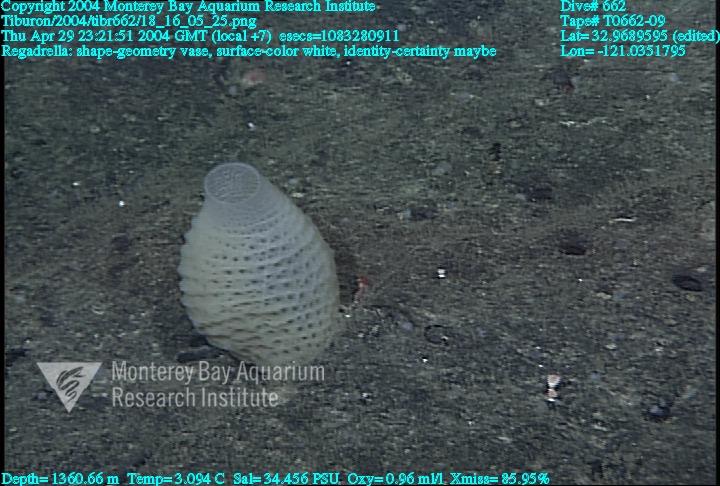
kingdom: Animalia
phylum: Porifera
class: Hexactinellida
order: Lyssacinosida
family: Euplectellidae
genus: Regadrella
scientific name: Regadrella
